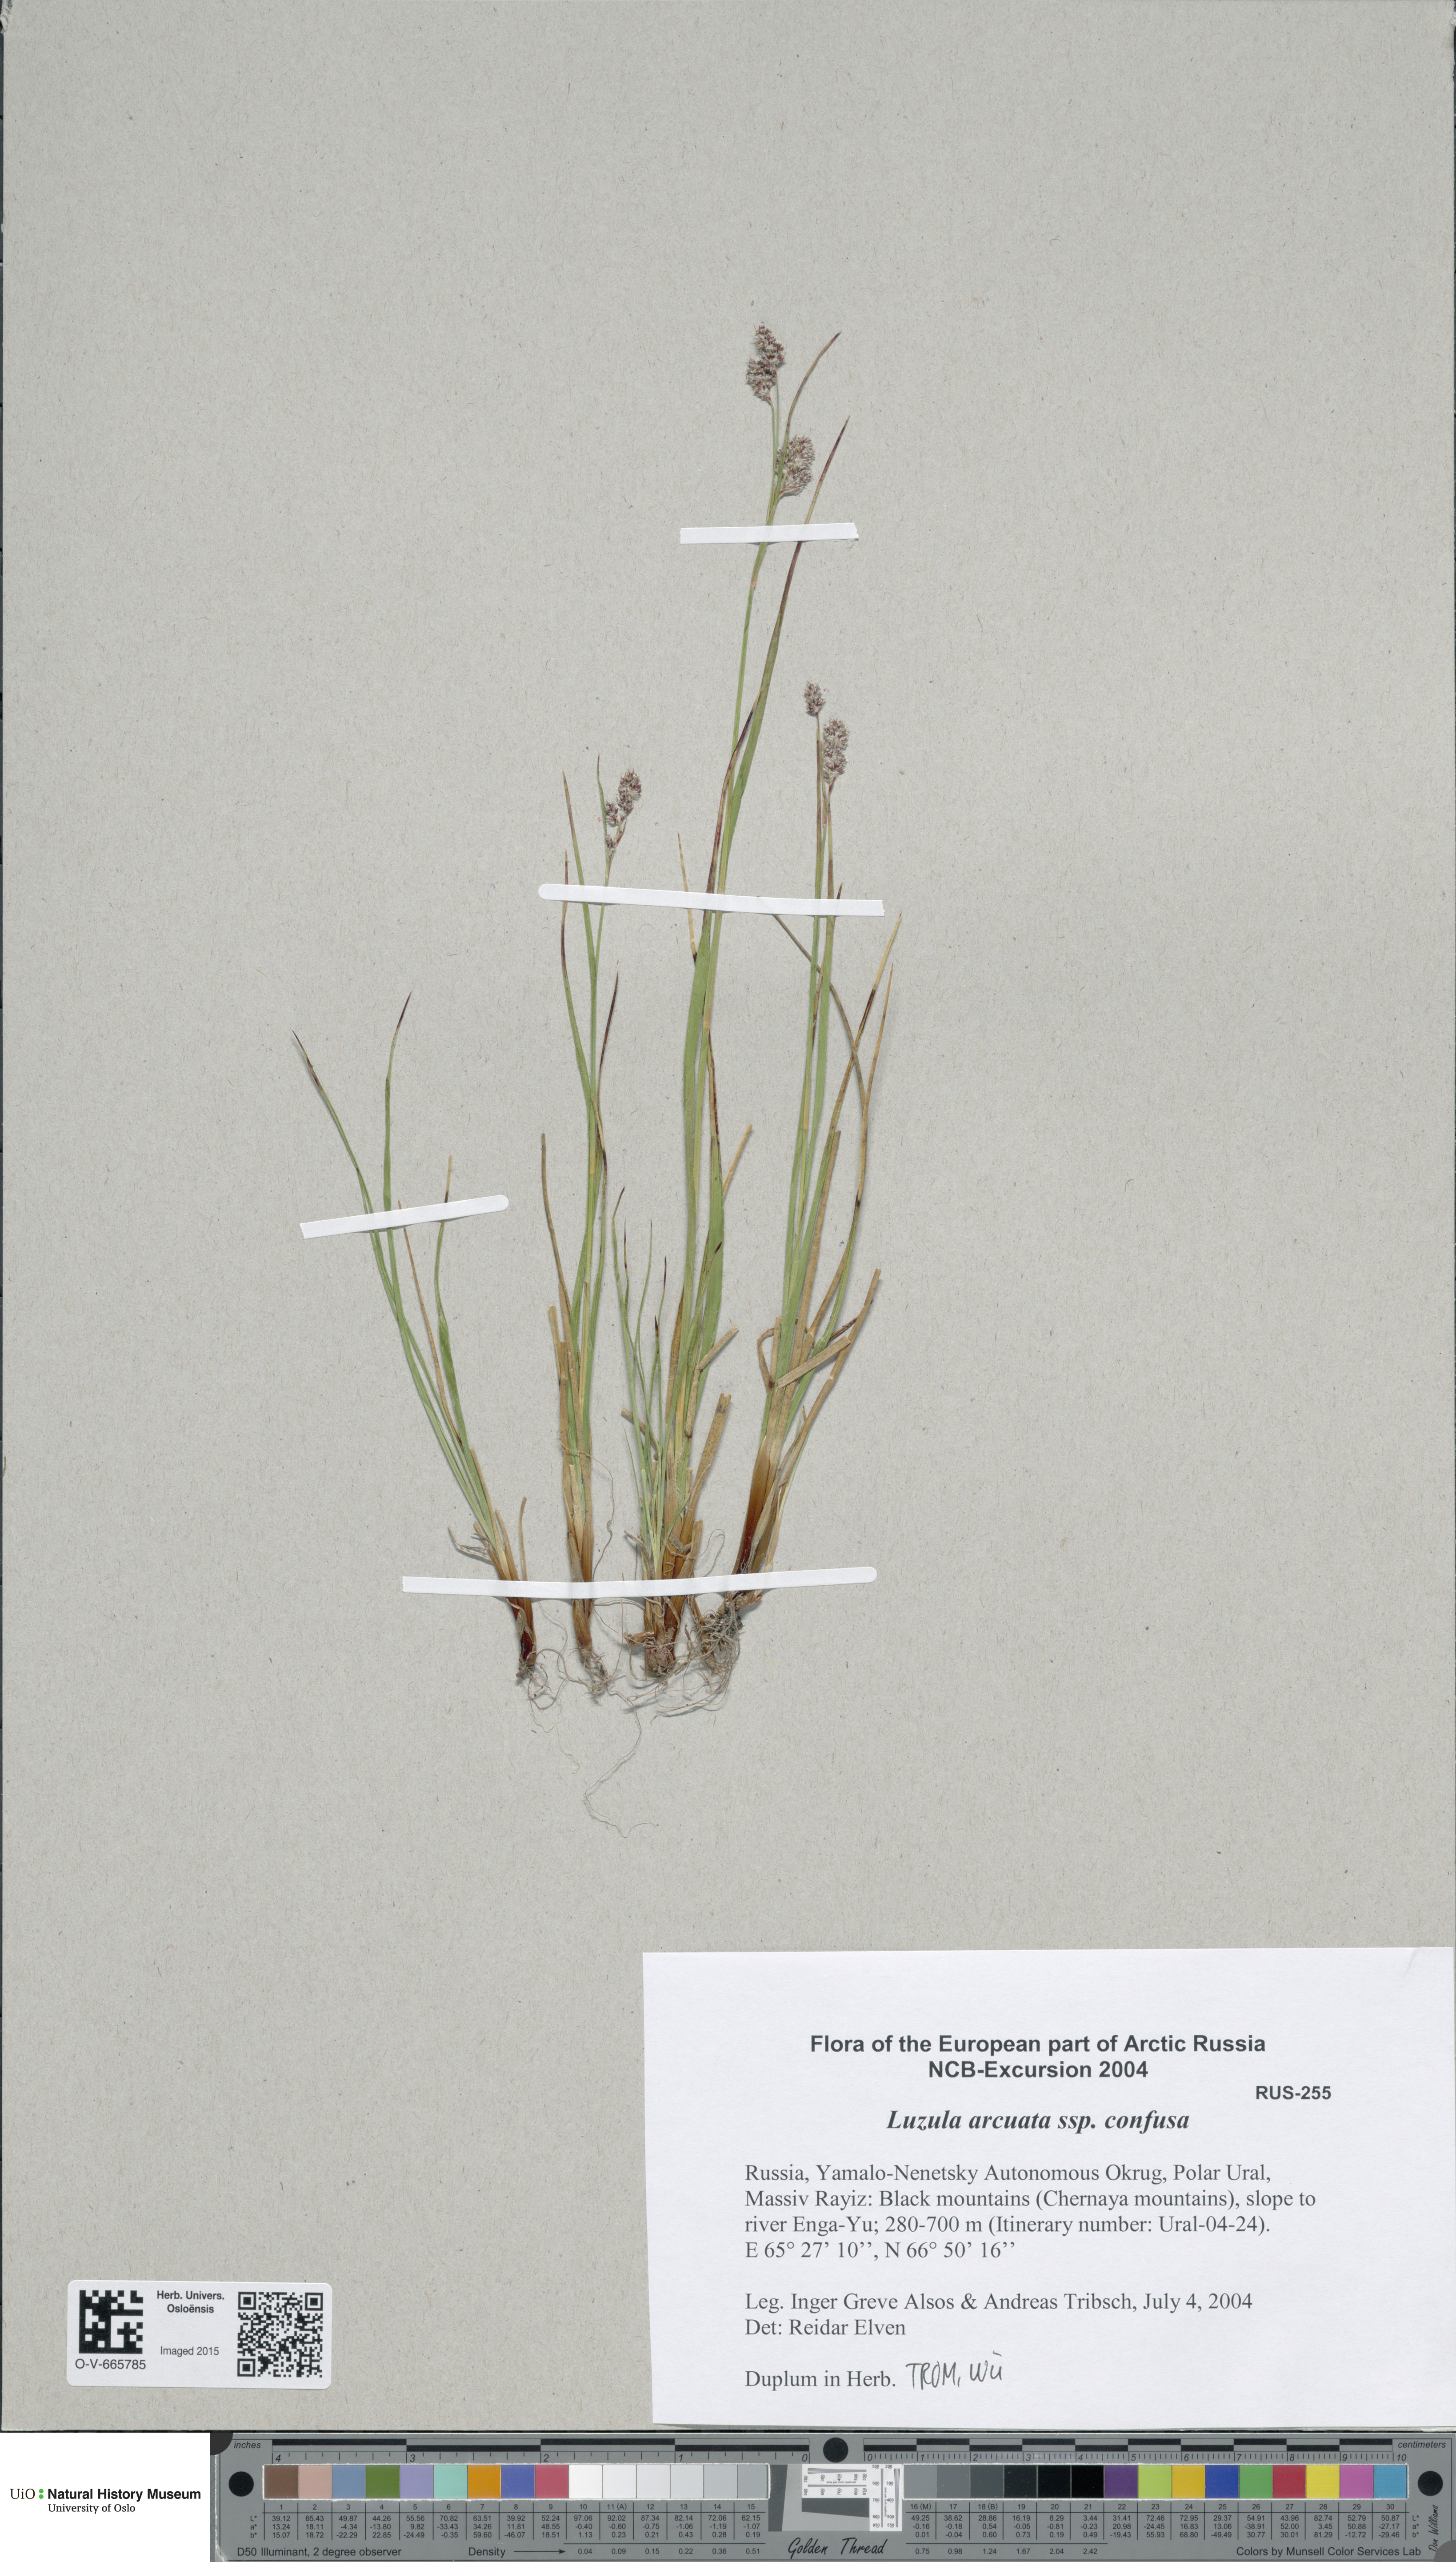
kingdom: Plantae
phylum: Tracheophyta
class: Liliopsida
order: Poales
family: Juncaceae
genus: Luzula
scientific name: Luzula confusa
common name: Northern wood rush
